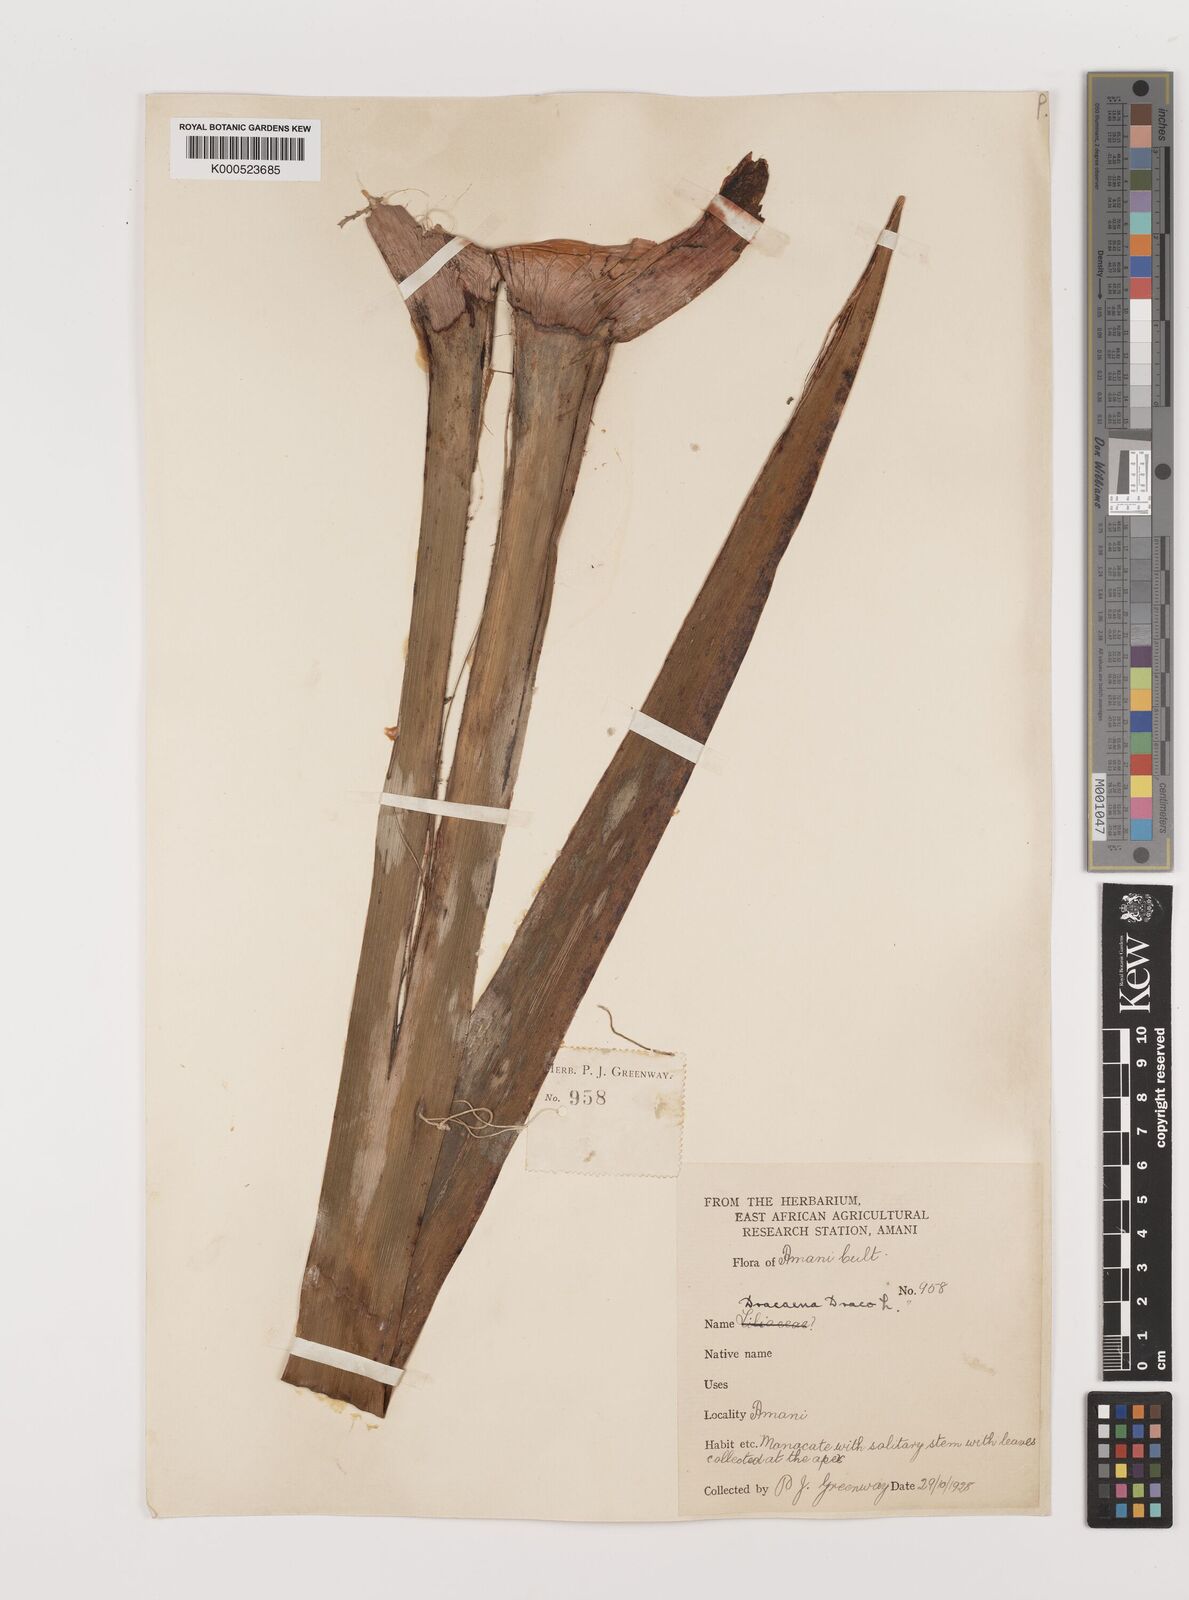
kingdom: Plantae
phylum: Tracheophyta
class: Liliopsida
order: Asparagales
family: Asparagaceae
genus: Dracaena
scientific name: Dracaena draco
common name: Canary island dragon tree
